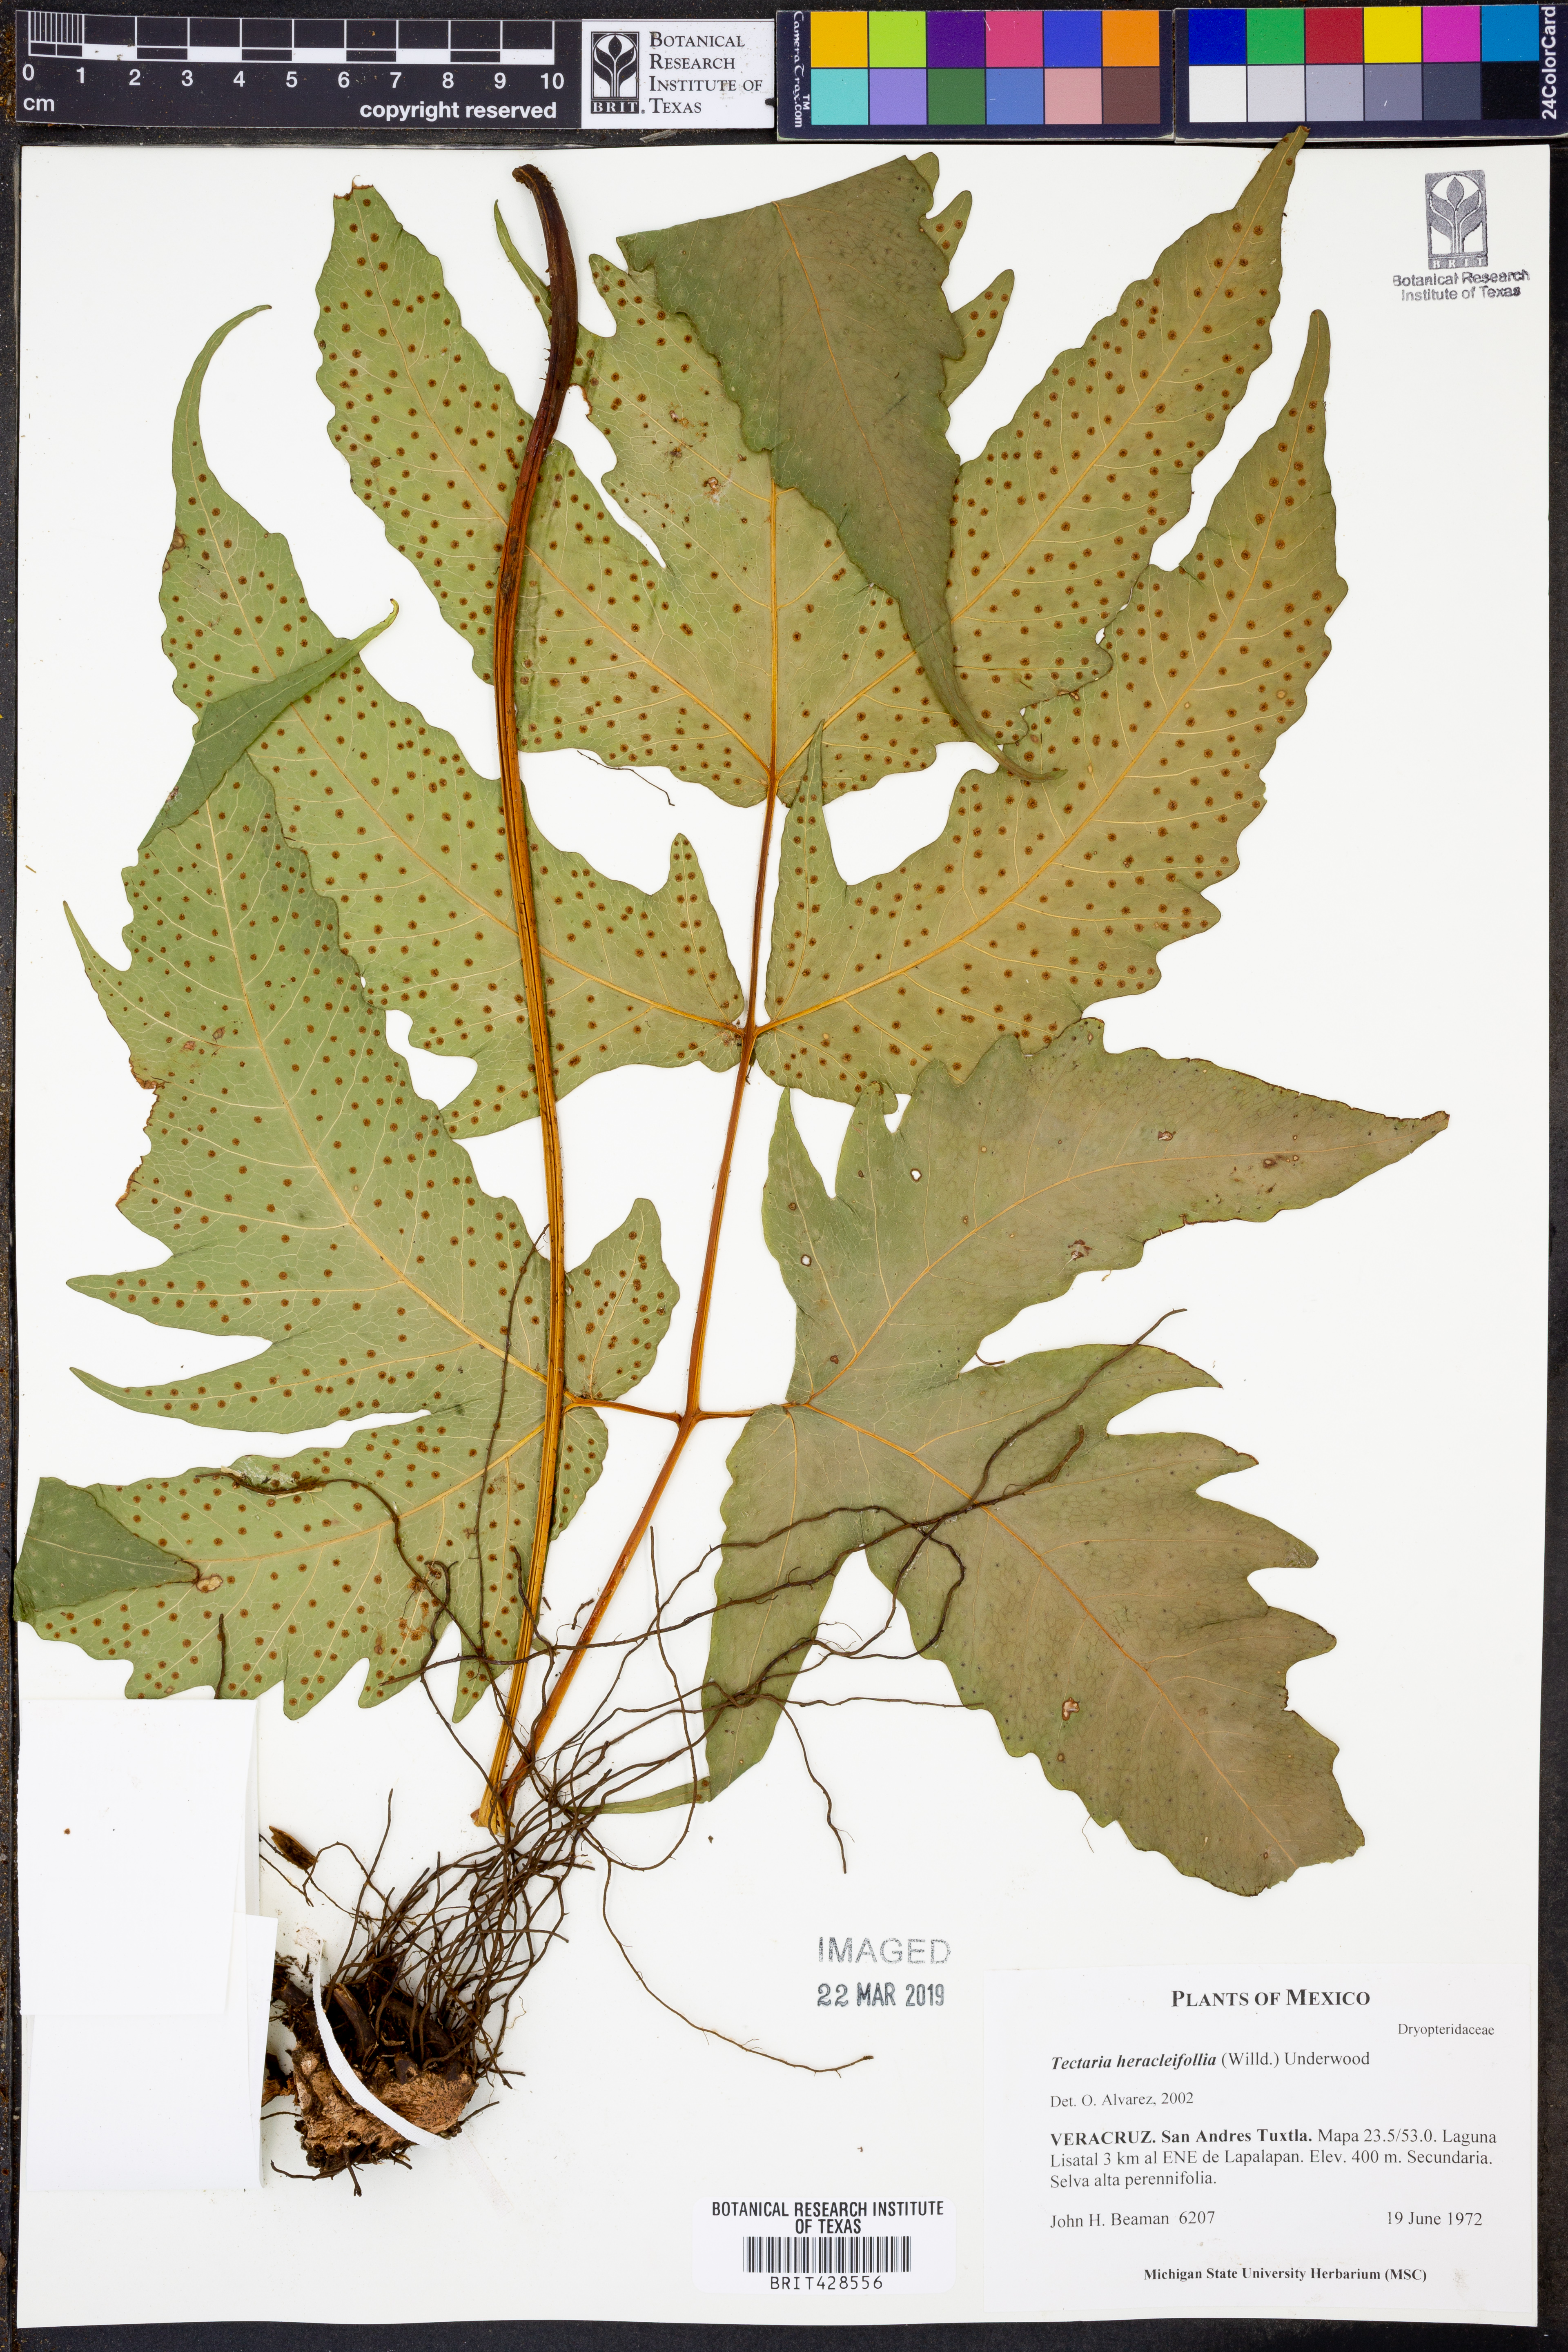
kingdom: Plantae
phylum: Tracheophyta
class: Polypodiopsida
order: Polypodiales
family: Tectariaceae
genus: Tectaria
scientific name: Tectaria heracleifolia
